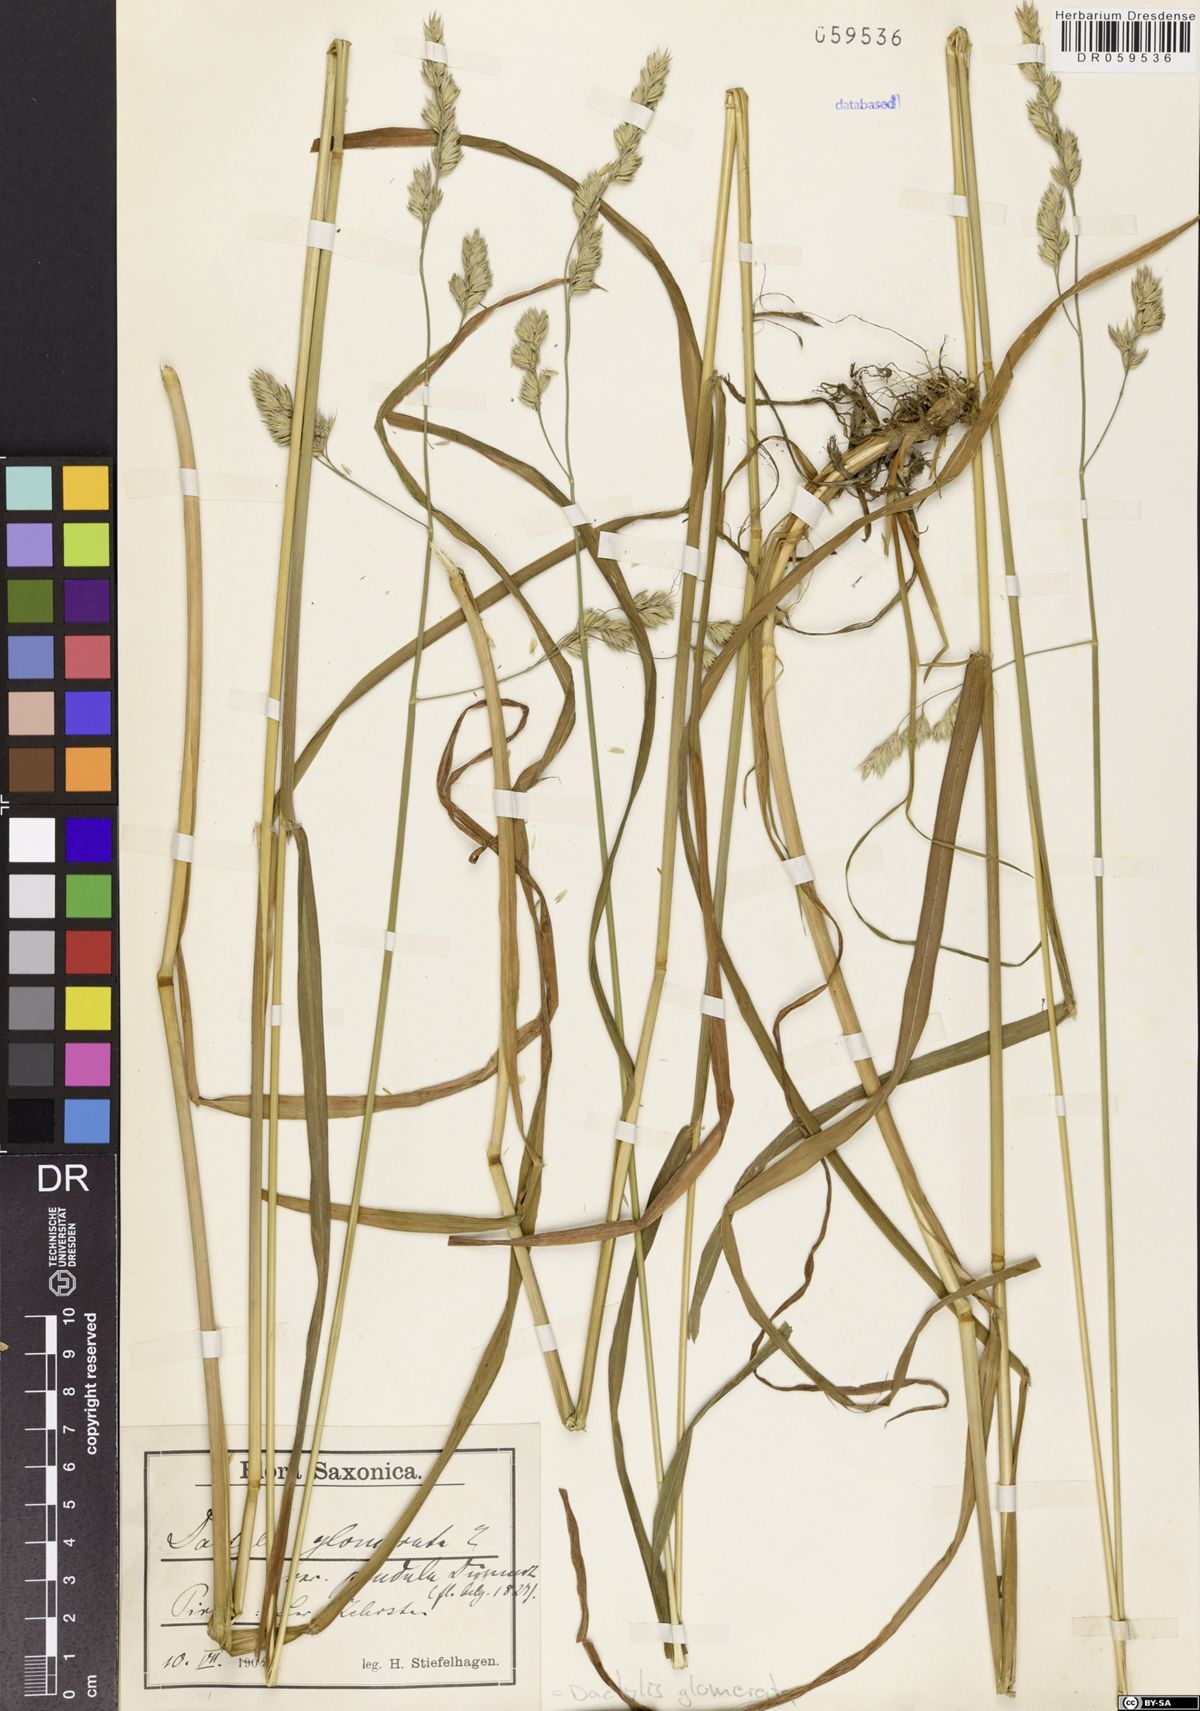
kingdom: Plantae
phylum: Tracheophyta
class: Liliopsida
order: Poales
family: Poaceae
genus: Dactylis
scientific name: Dactylis glomerata
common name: Orchardgrass
